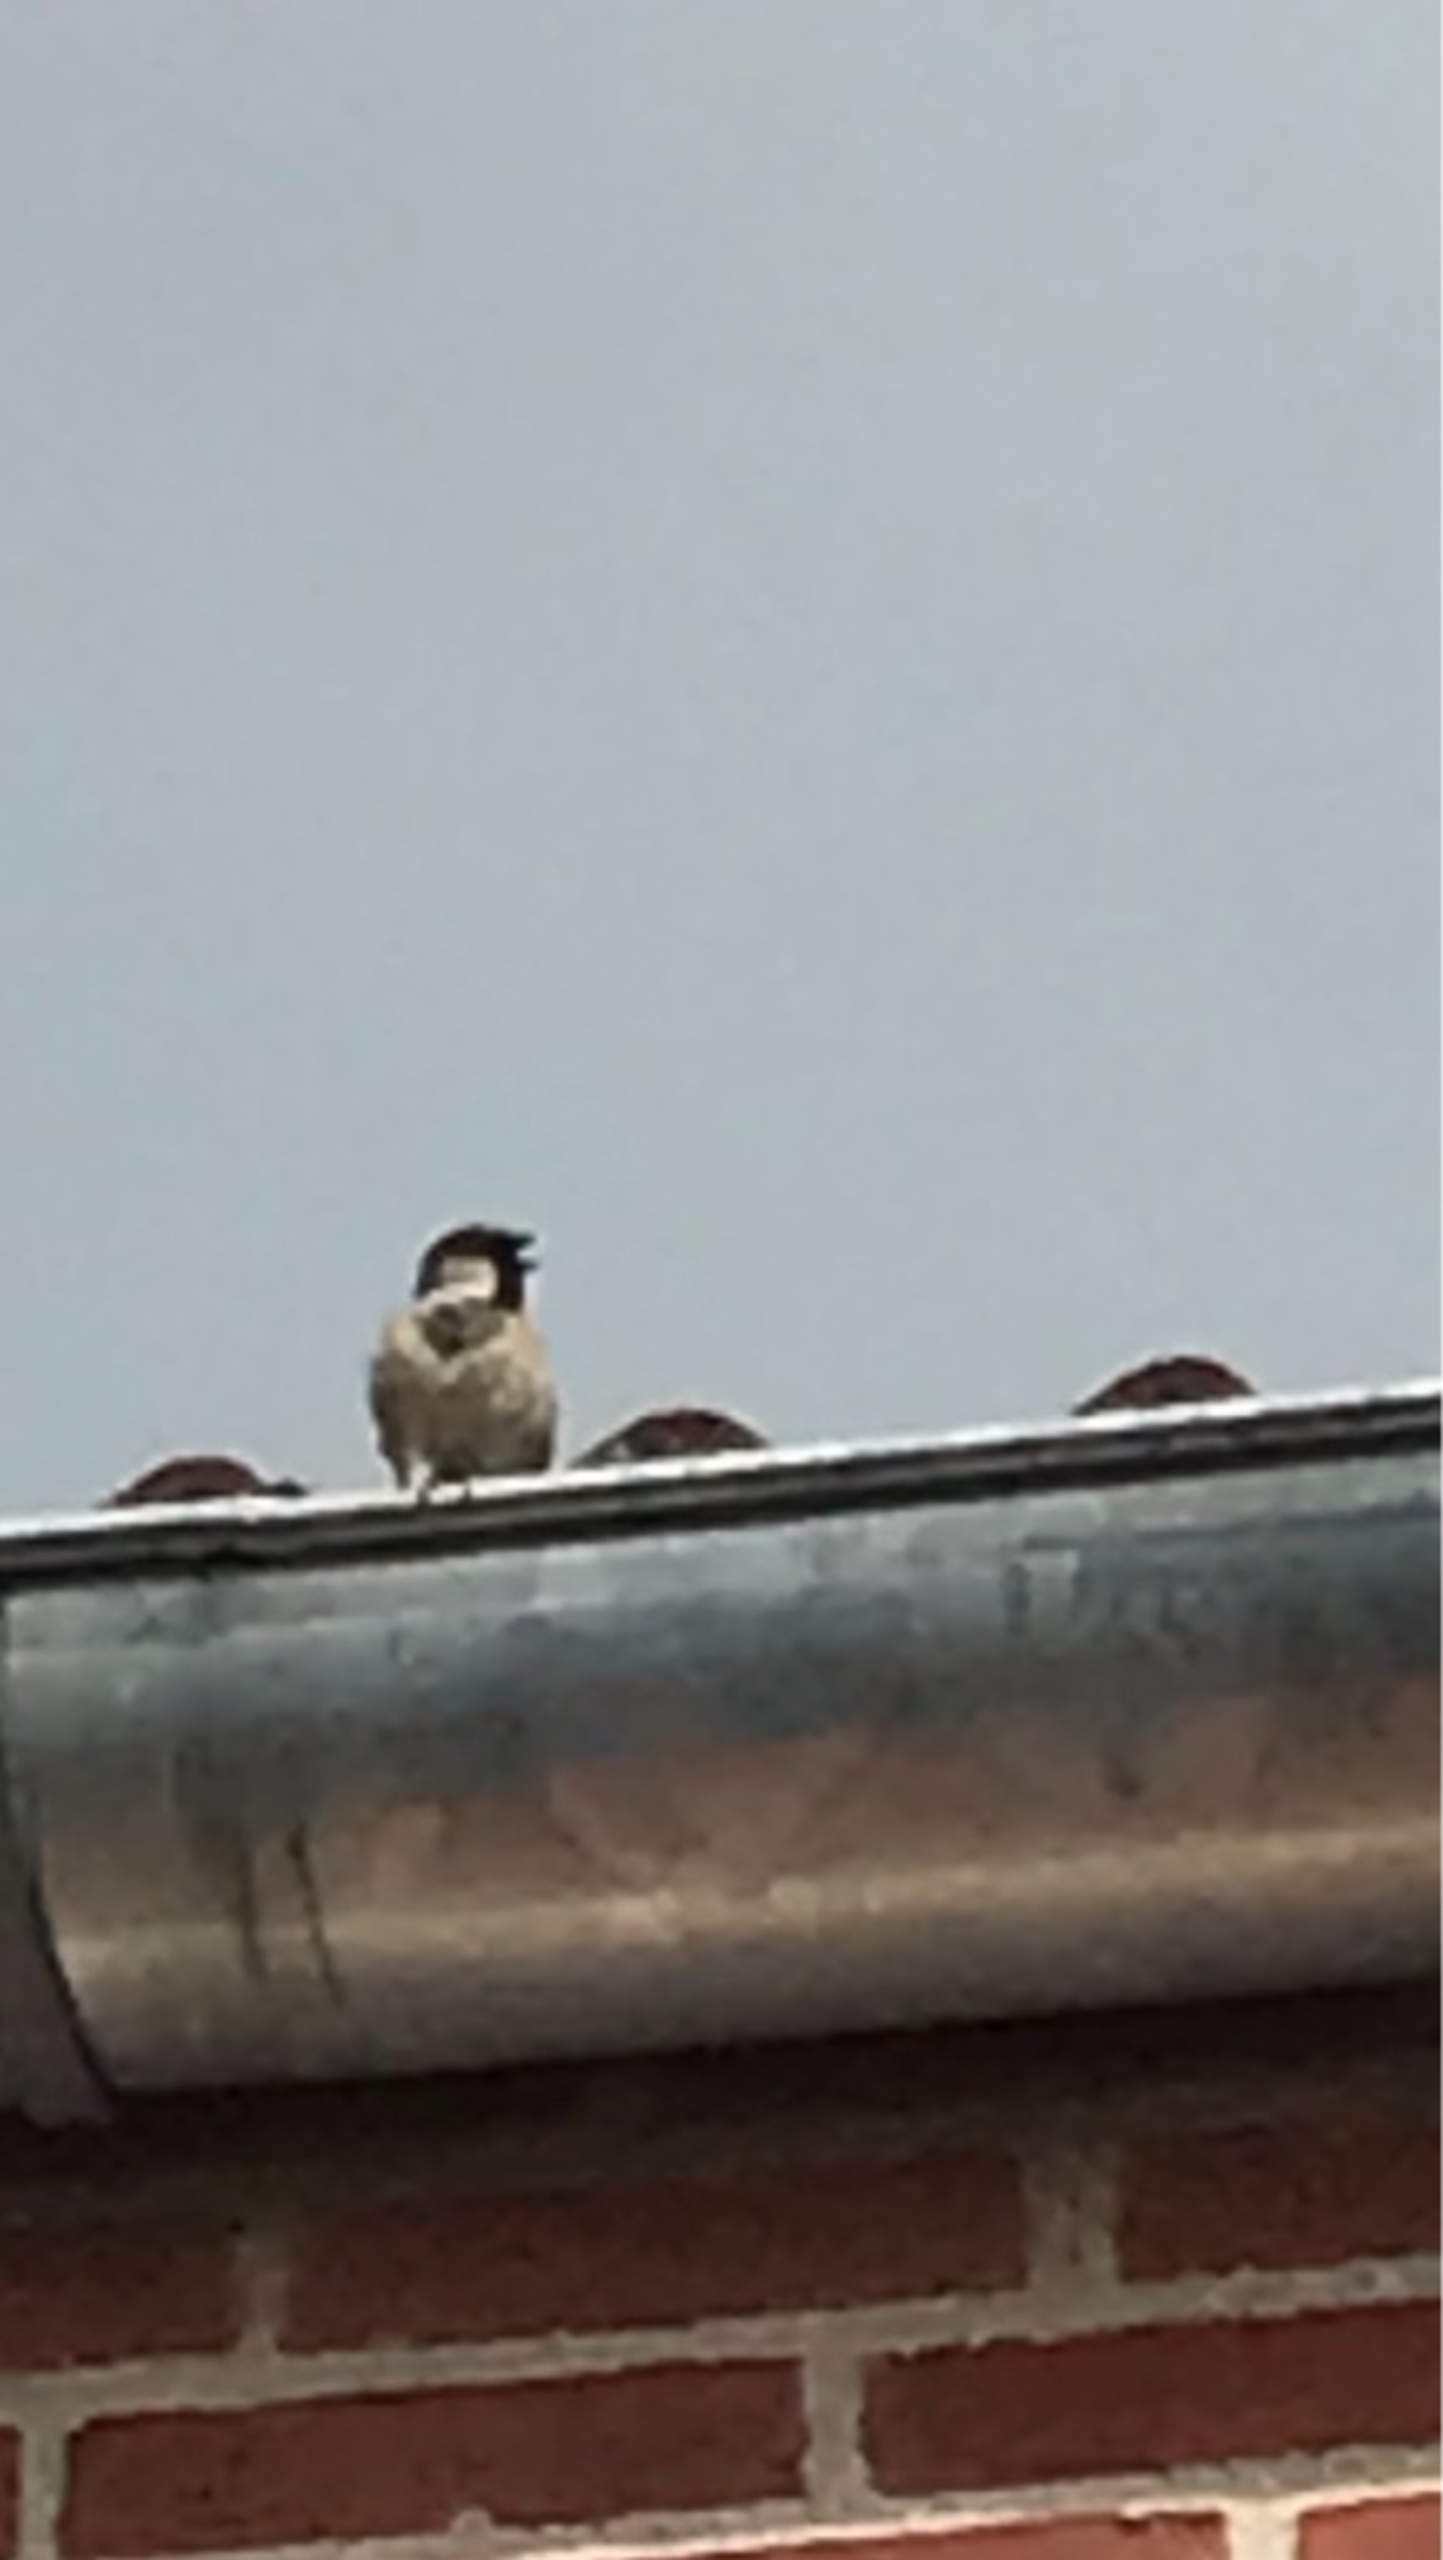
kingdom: Animalia
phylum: Chordata
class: Aves
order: Passeriformes
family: Passeridae
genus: Passer
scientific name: Passer domesticus
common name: Gråspurv
